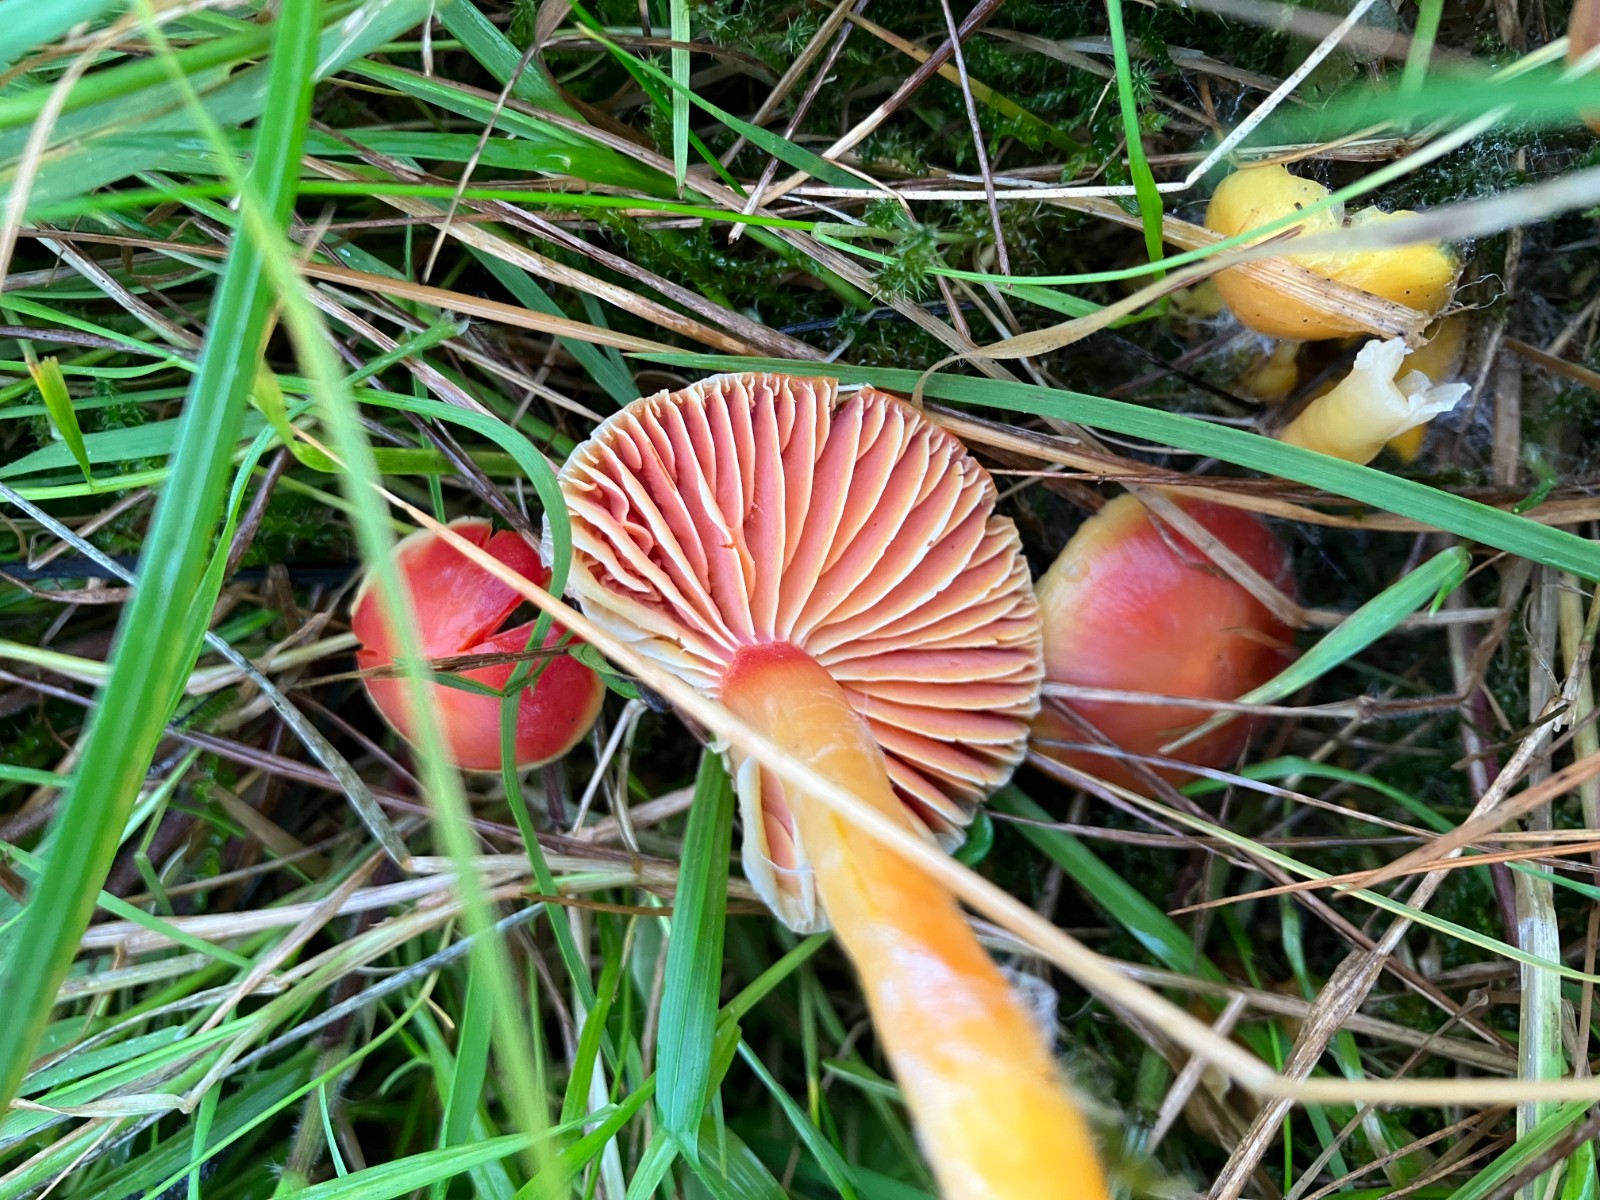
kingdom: Fungi
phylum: Basidiomycota
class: Agaricomycetes
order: Agaricales
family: Hygrophoraceae
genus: Hygrocybe
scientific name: Hygrocybe coccinea
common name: cinnober-vokshat
